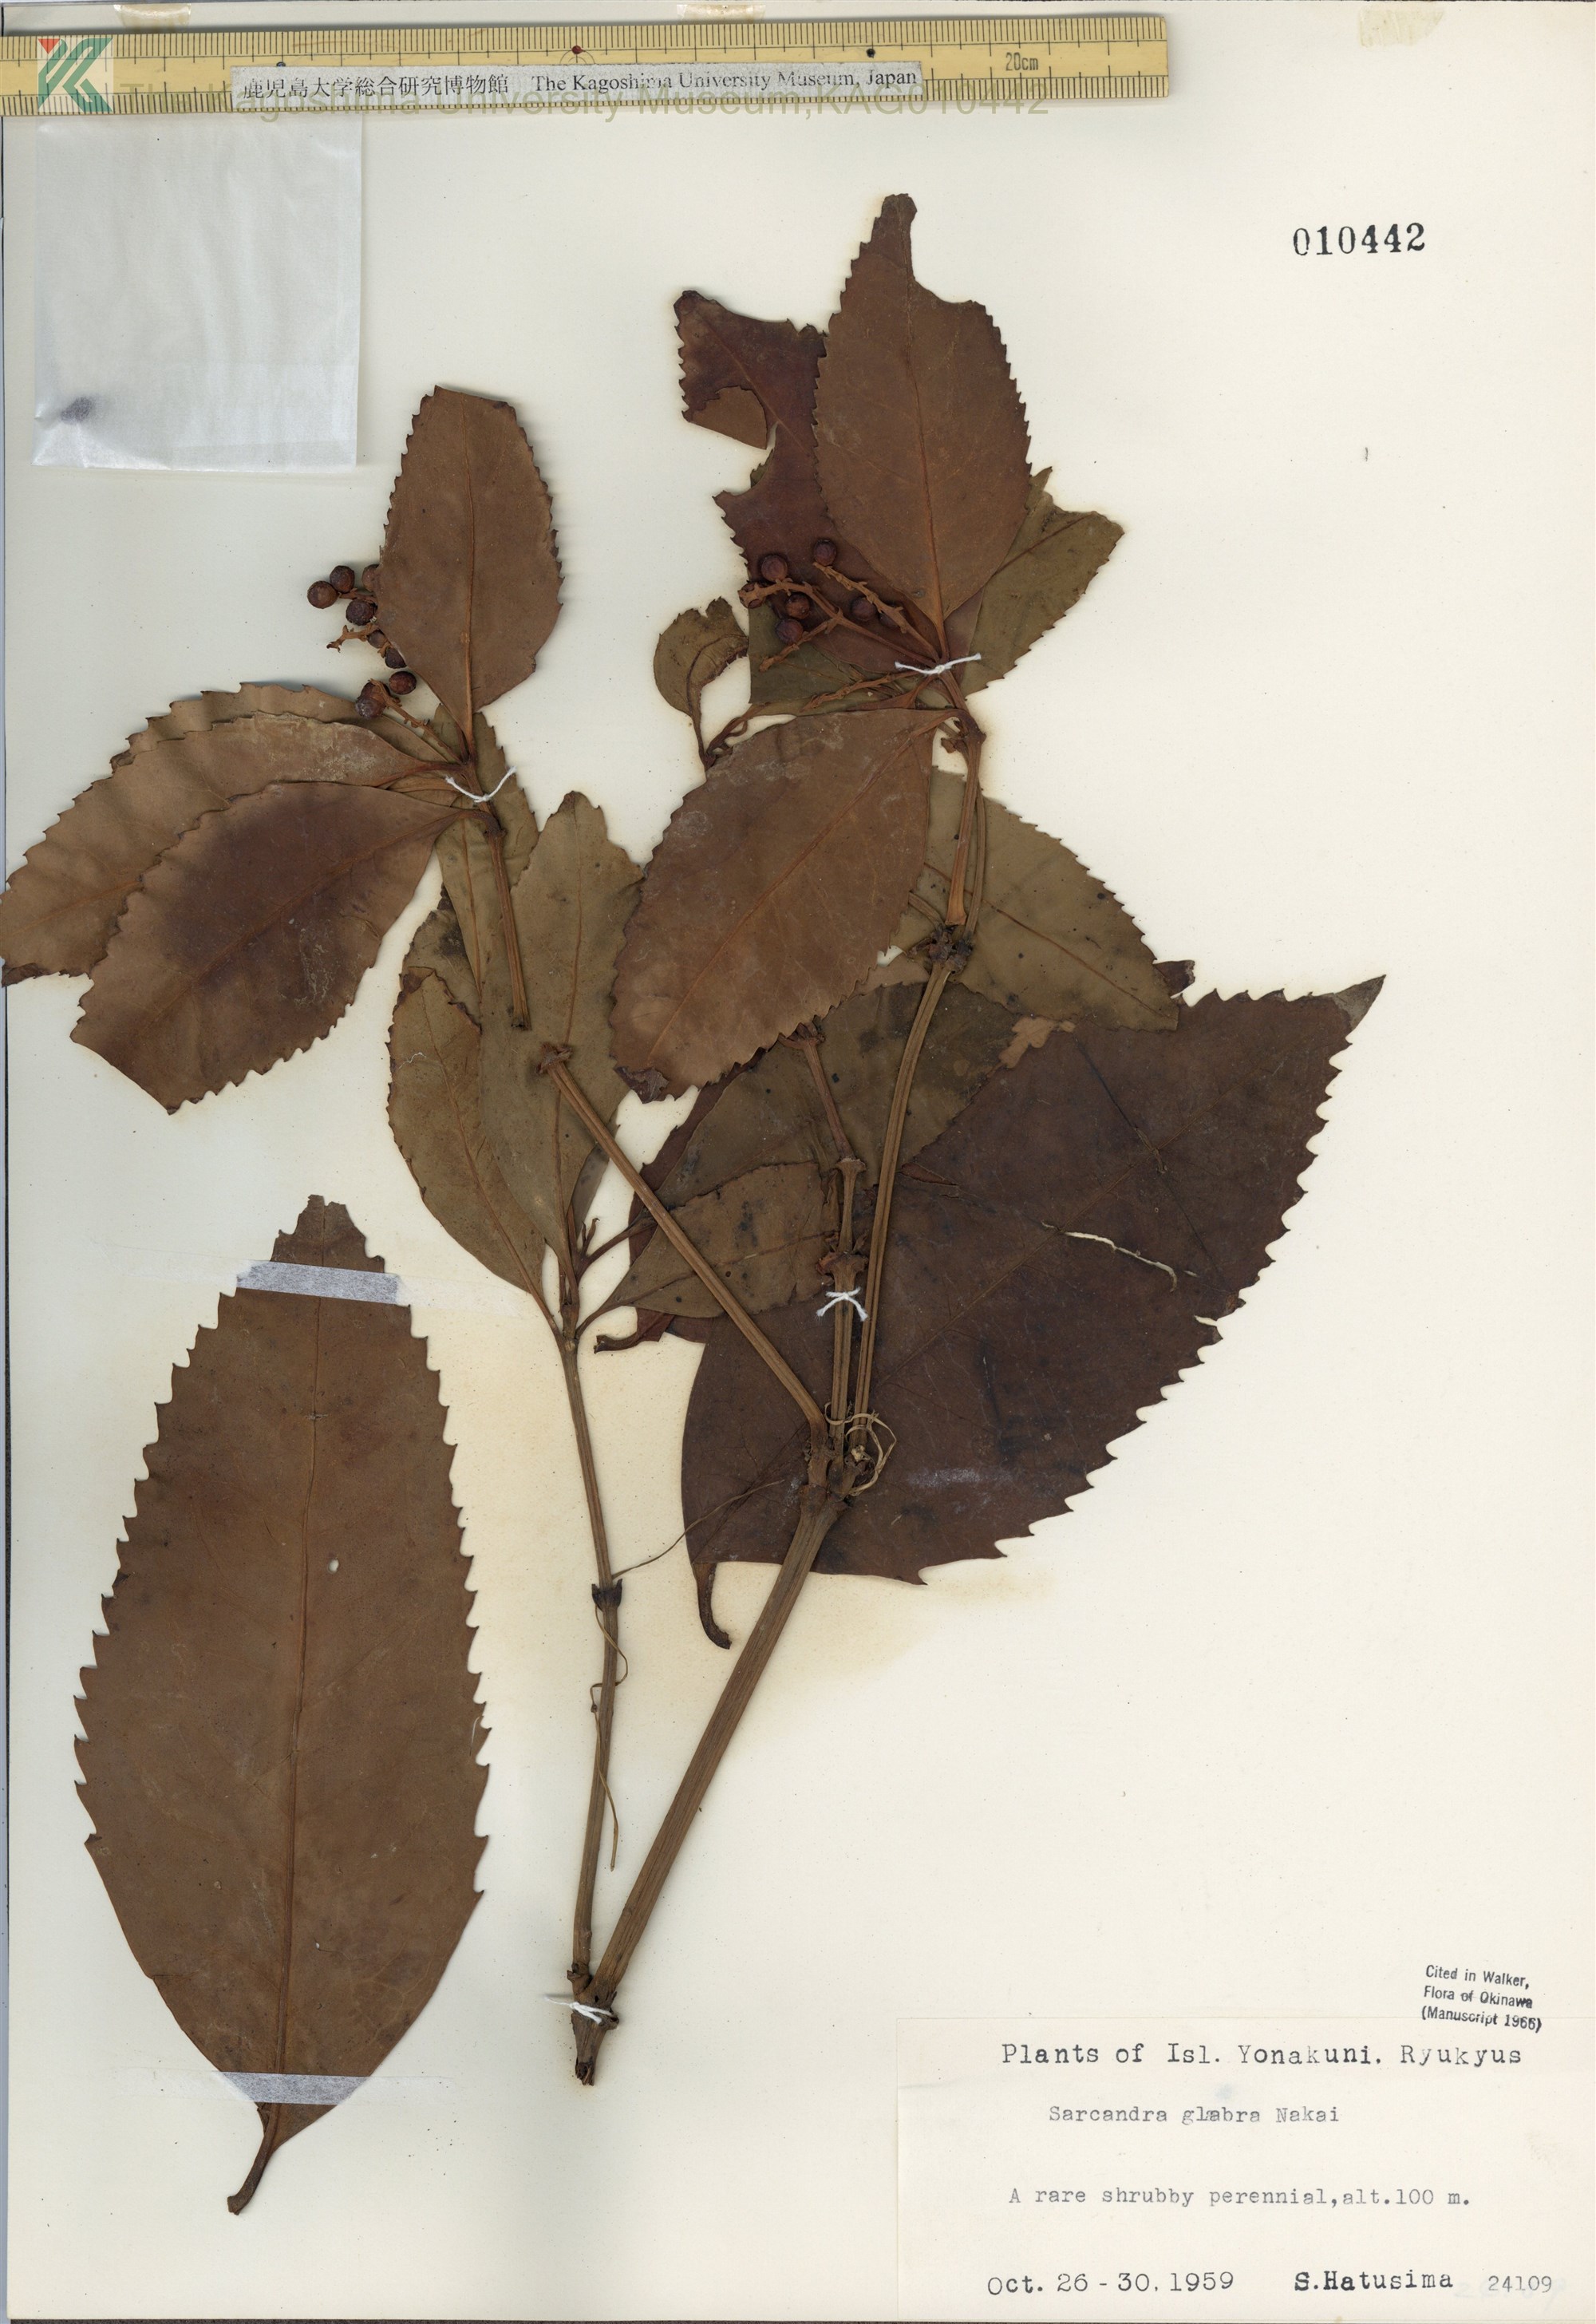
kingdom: Plantae
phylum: Tracheophyta
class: Magnoliopsida
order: Chloranthales
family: Chloranthaceae
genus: Sarcandra
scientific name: Sarcandra glabra
